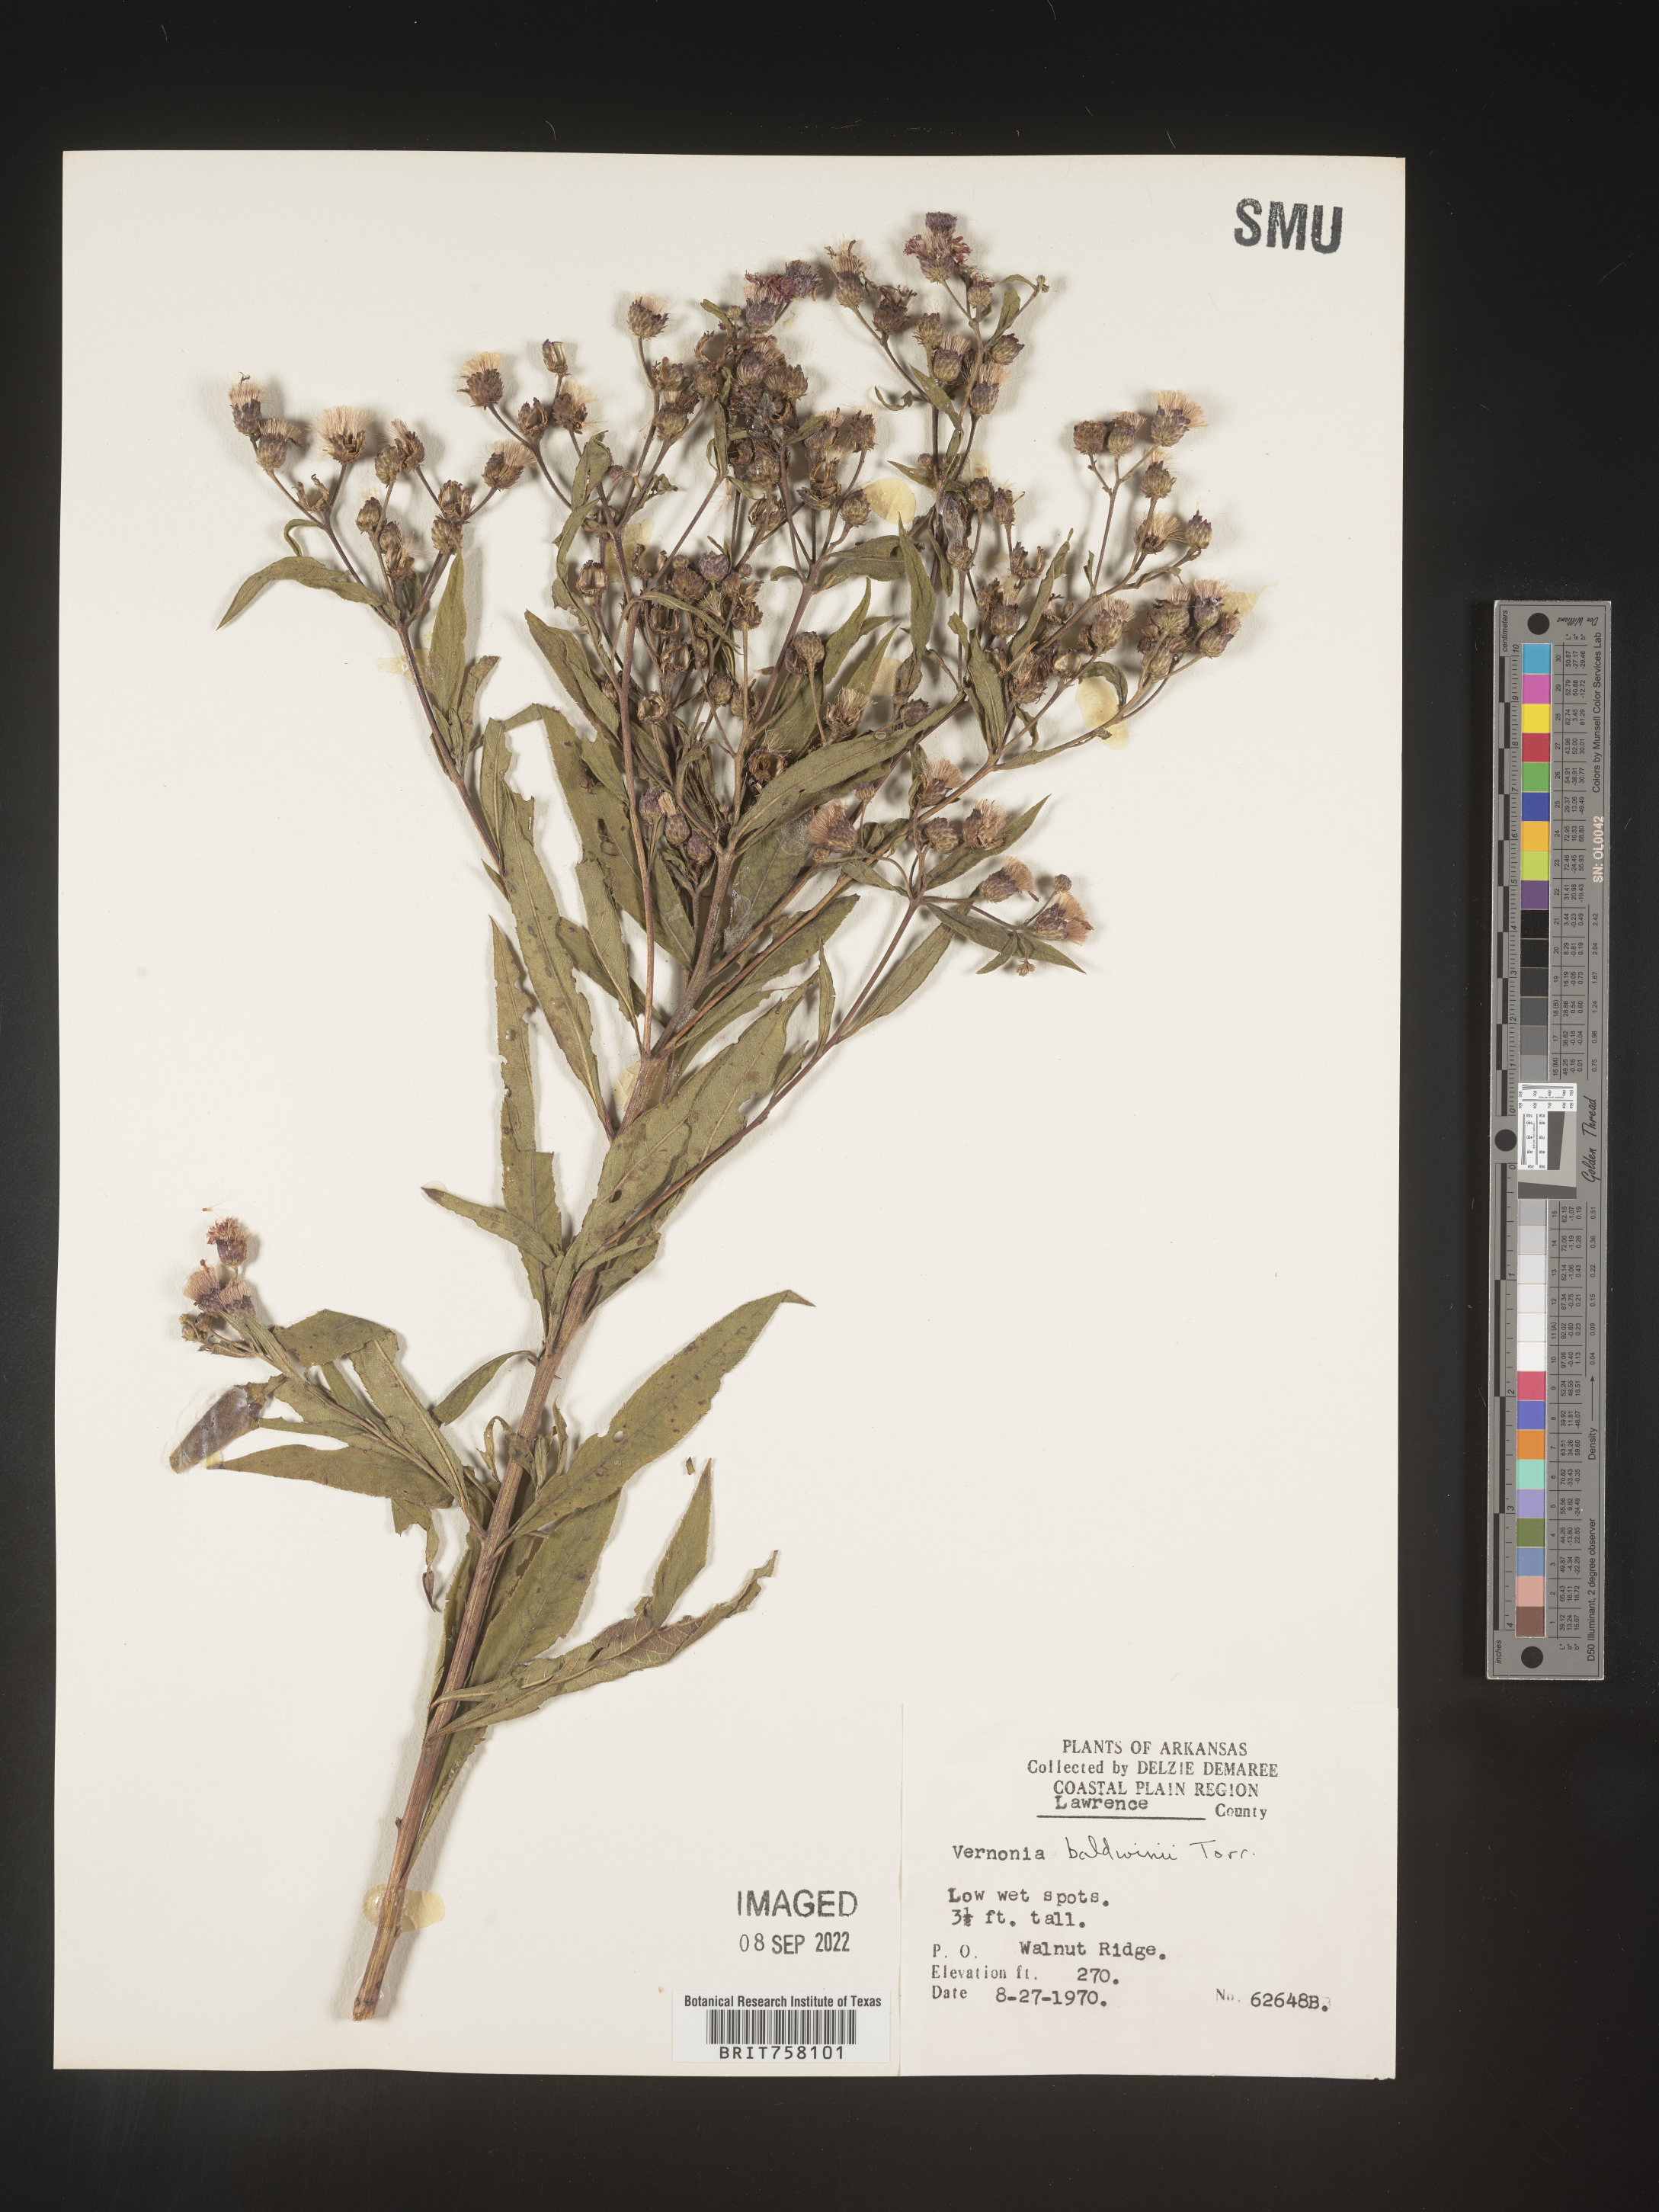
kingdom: Plantae
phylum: Tracheophyta
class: Magnoliopsida
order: Asterales
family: Asteraceae
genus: Vernonia
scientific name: Vernonia baldwinii
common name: Western ironweed
